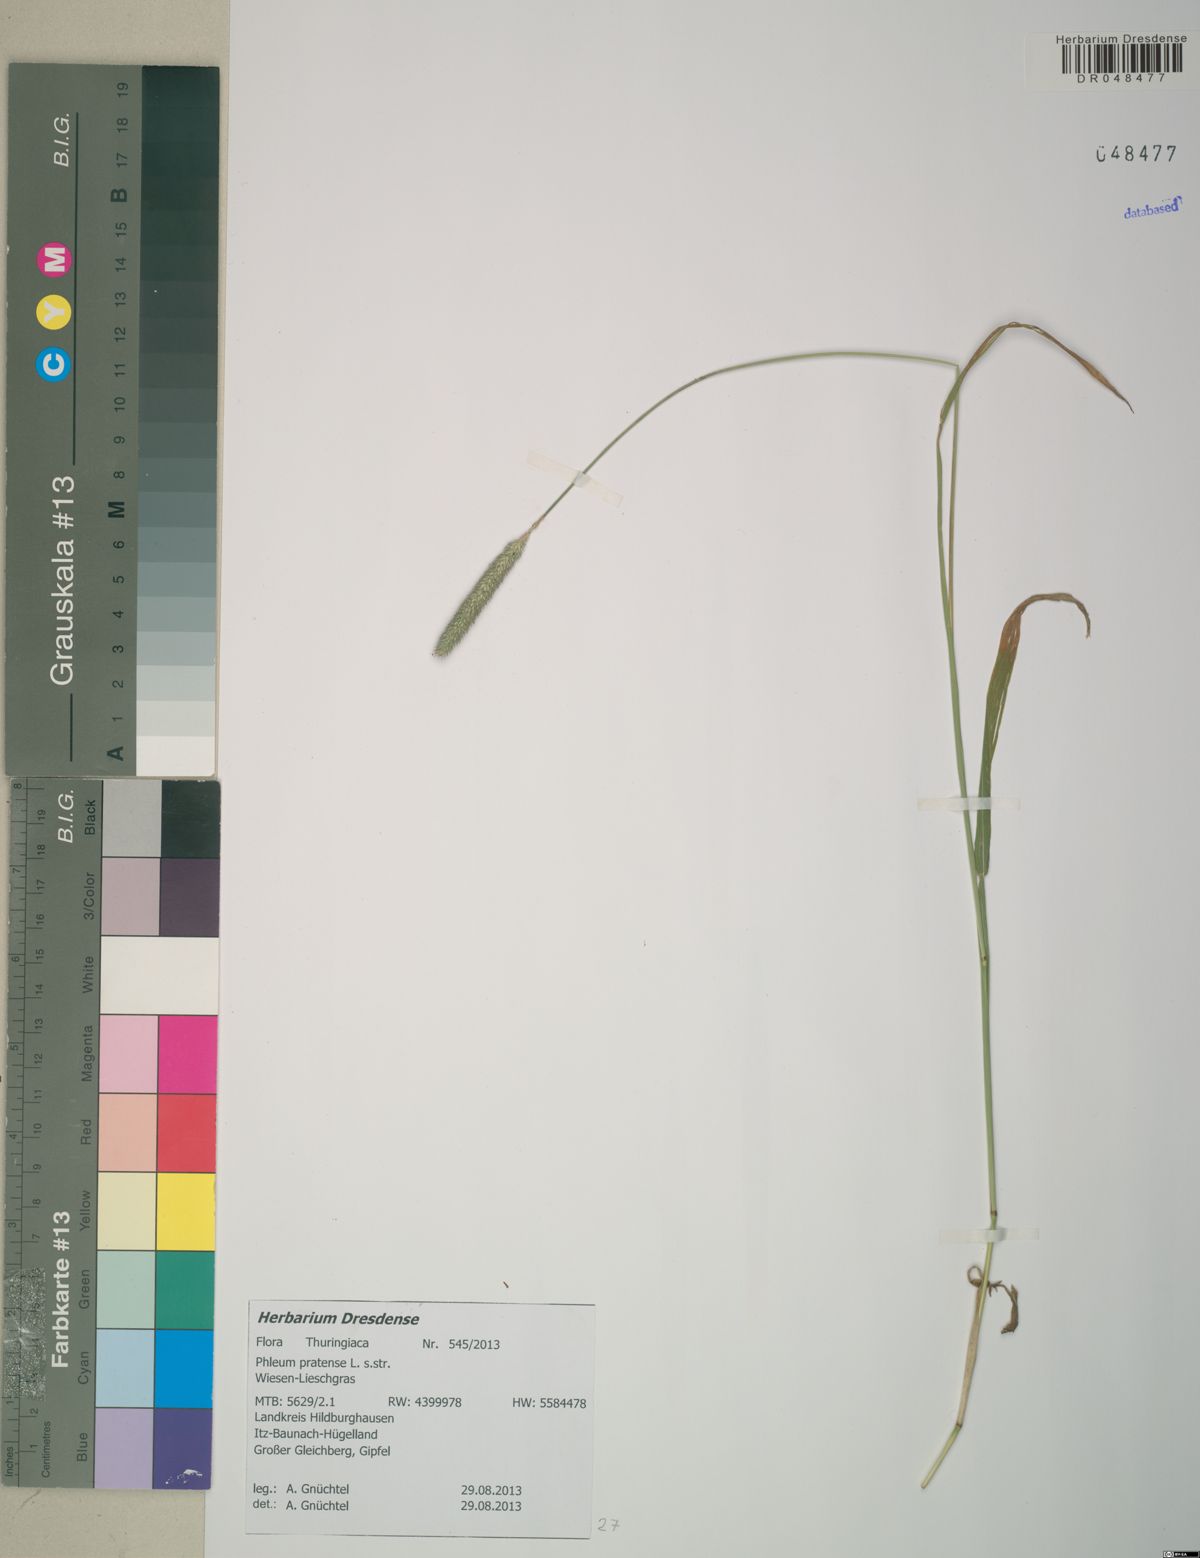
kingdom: Plantae
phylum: Tracheophyta
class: Liliopsida
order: Poales
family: Poaceae
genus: Phleum
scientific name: Phleum pratense
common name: Timothy grass
